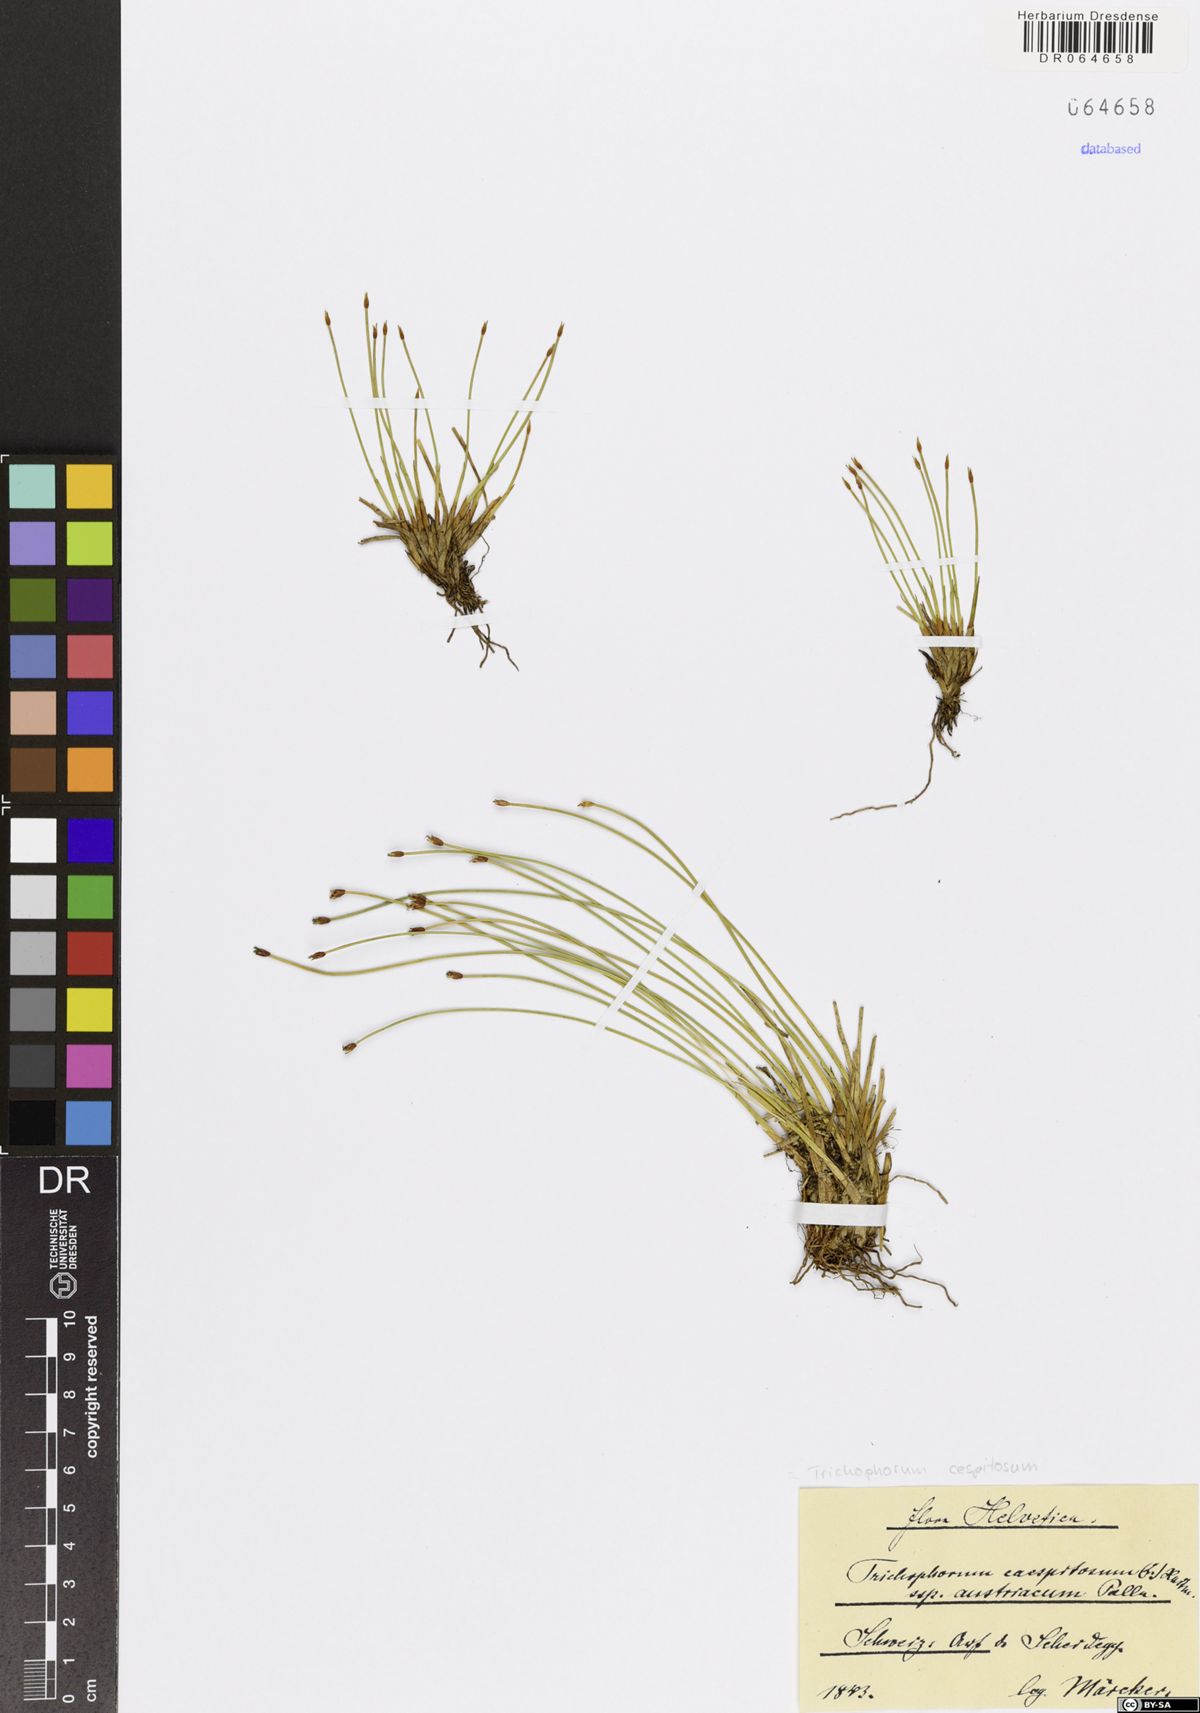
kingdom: Plantae
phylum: Tracheophyta
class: Liliopsida
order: Poales
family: Cyperaceae
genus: Trichophorum
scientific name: Trichophorum cespitosum
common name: Cespitose bulrush
